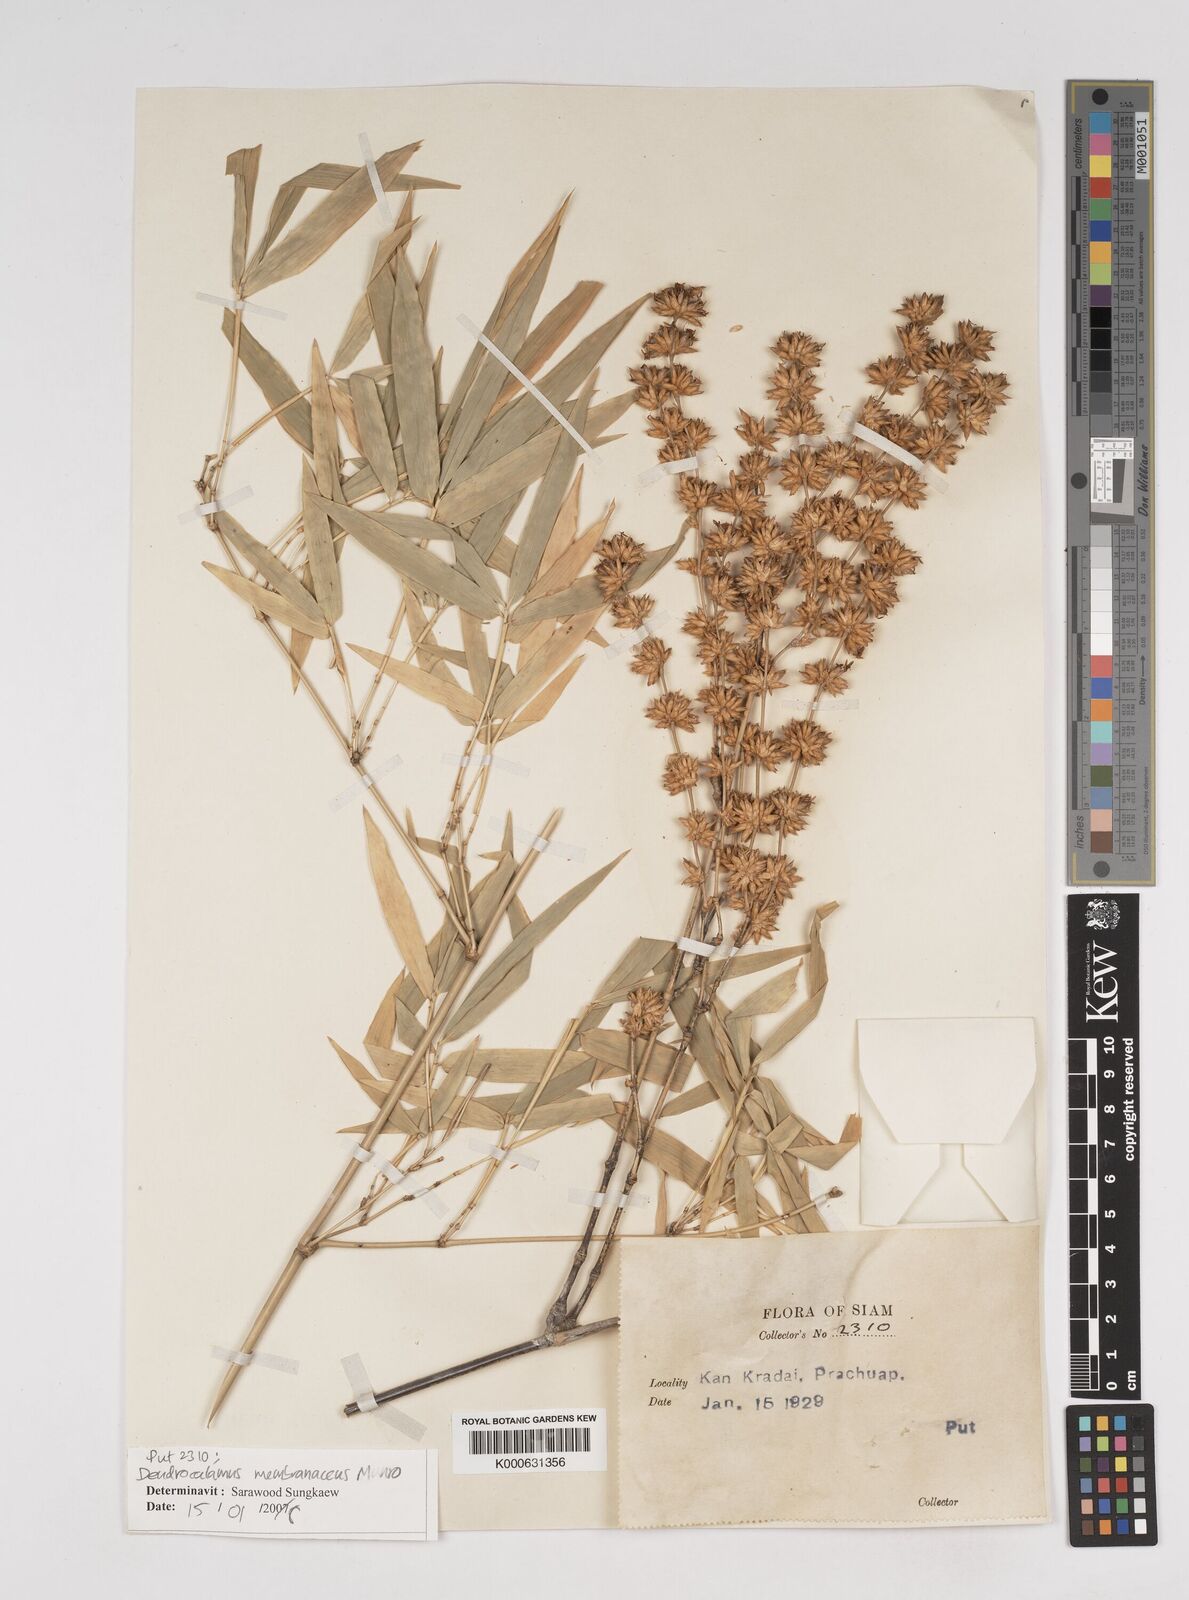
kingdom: Plantae
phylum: Tracheophyta
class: Liliopsida
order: Poales
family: Poaceae
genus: Dendrocalamus
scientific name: Dendrocalamus membranaceus
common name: White bamboo
